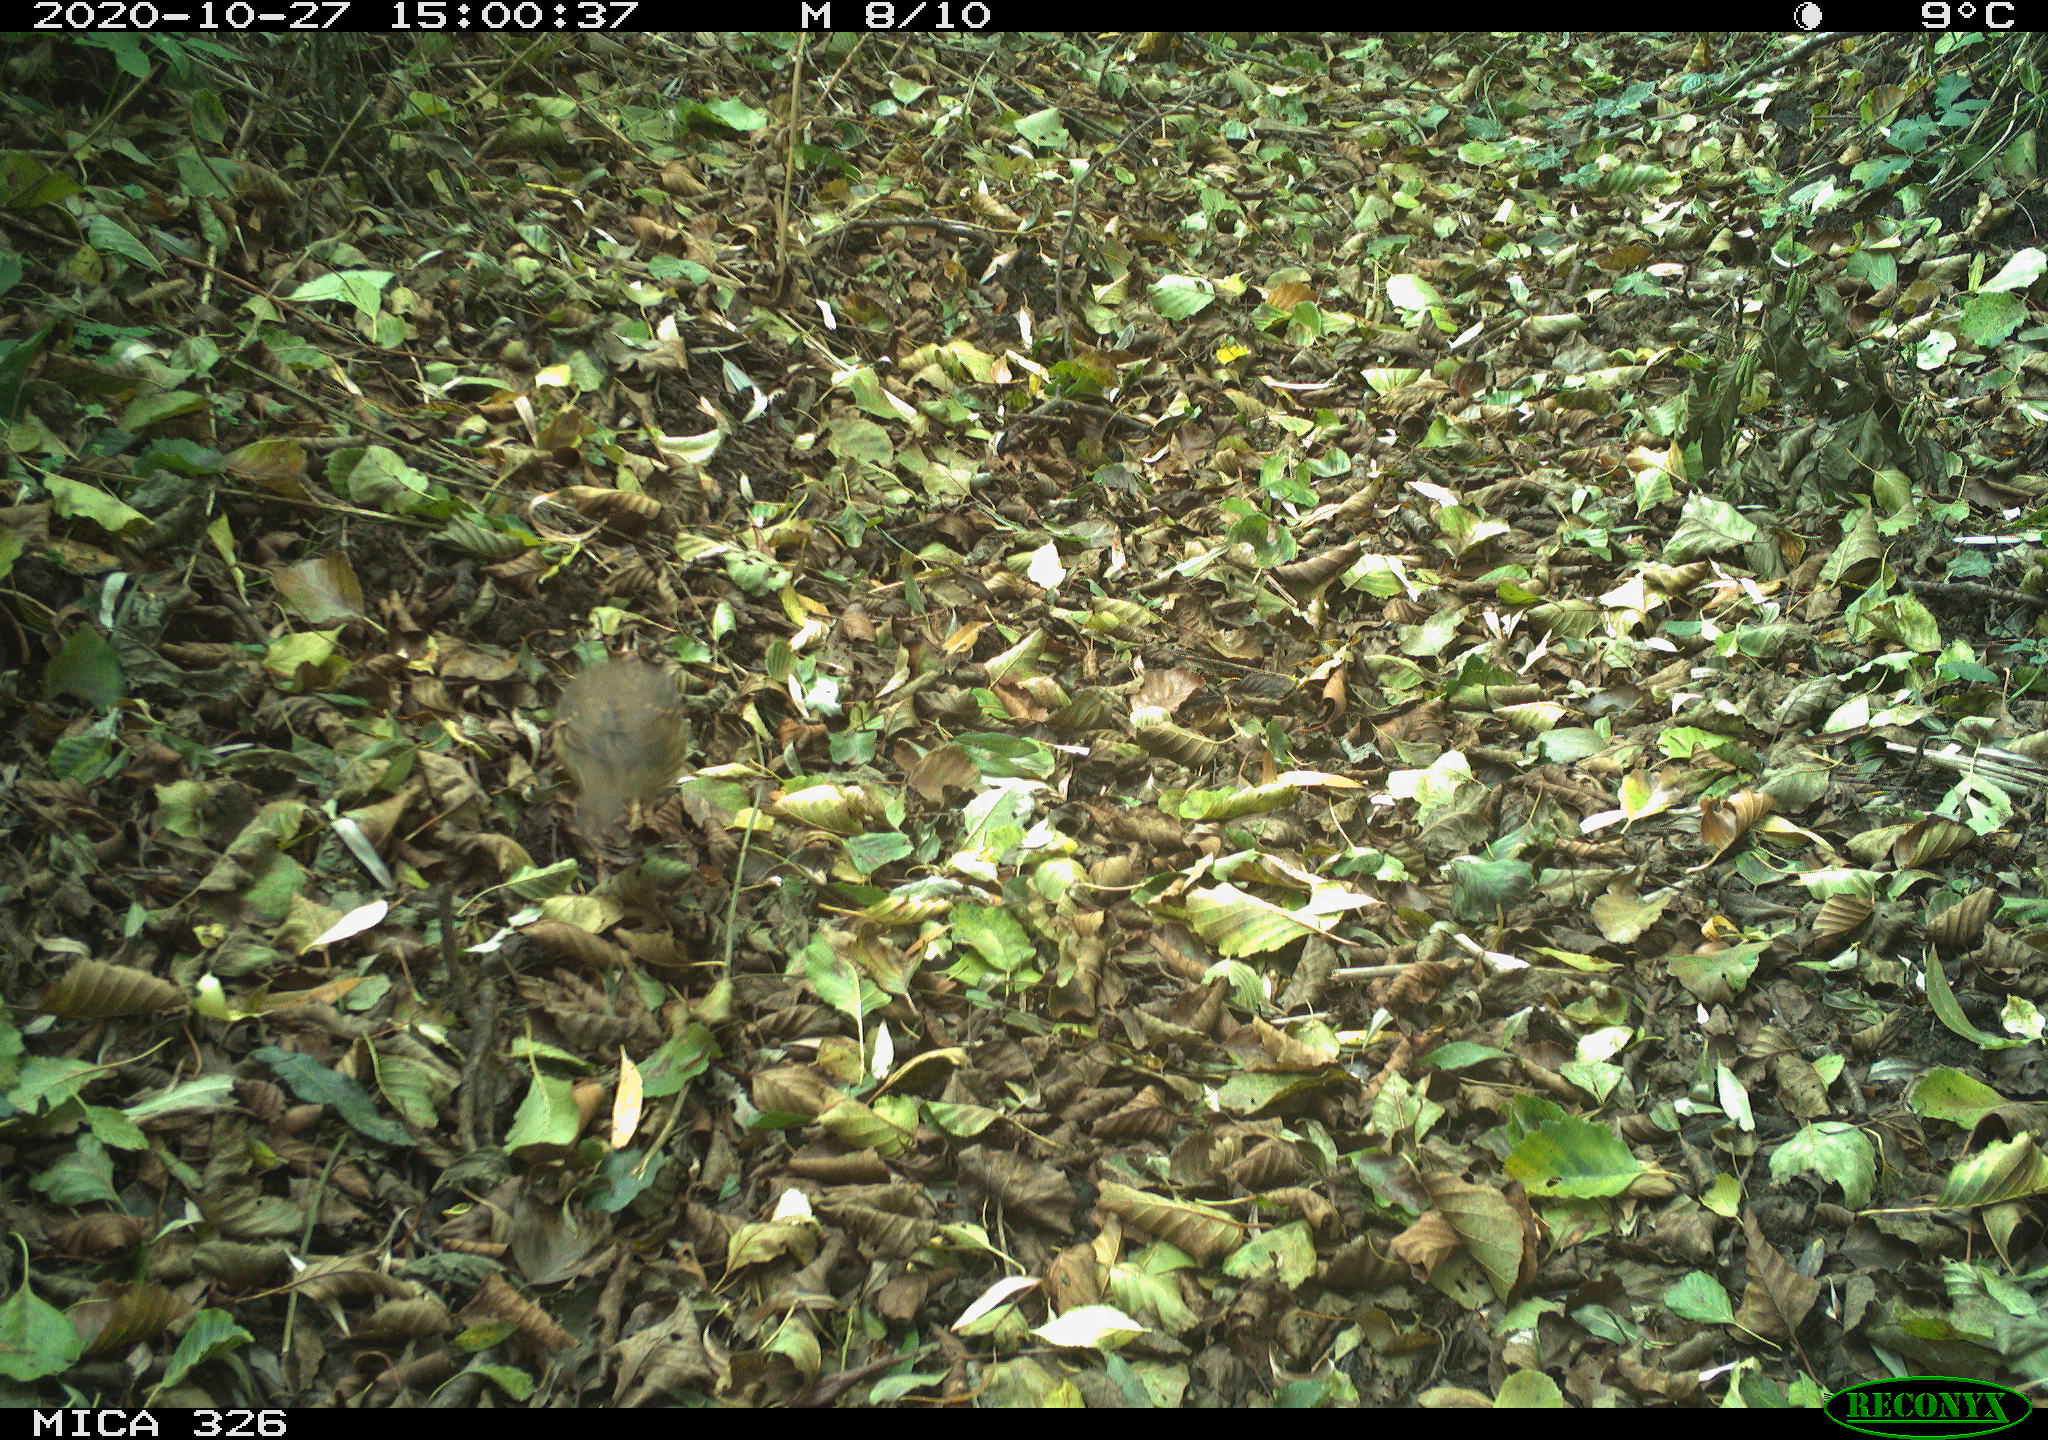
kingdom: Animalia
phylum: Chordata
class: Aves
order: Passeriformes
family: Turdidae
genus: Turdus
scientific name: Turdus philomelos
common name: Song thrush
